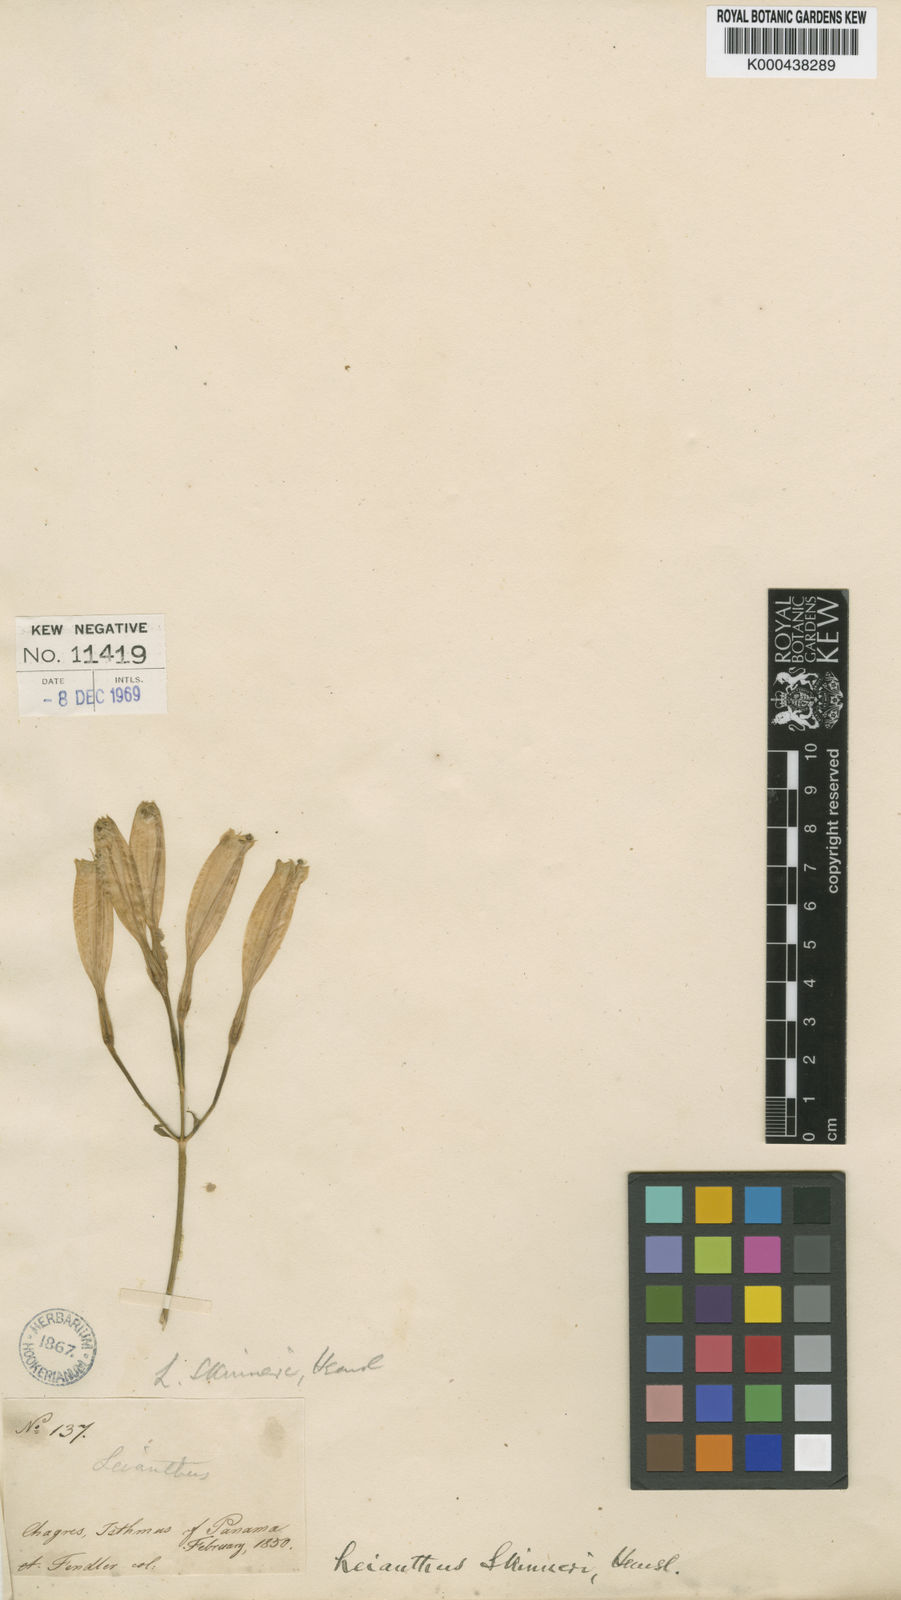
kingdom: Plantae
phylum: Tracheophyta
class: Magnoliopsida
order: Gentianales
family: Gentianaceae
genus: Lisianthus
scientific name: Lisianthus skinneri
